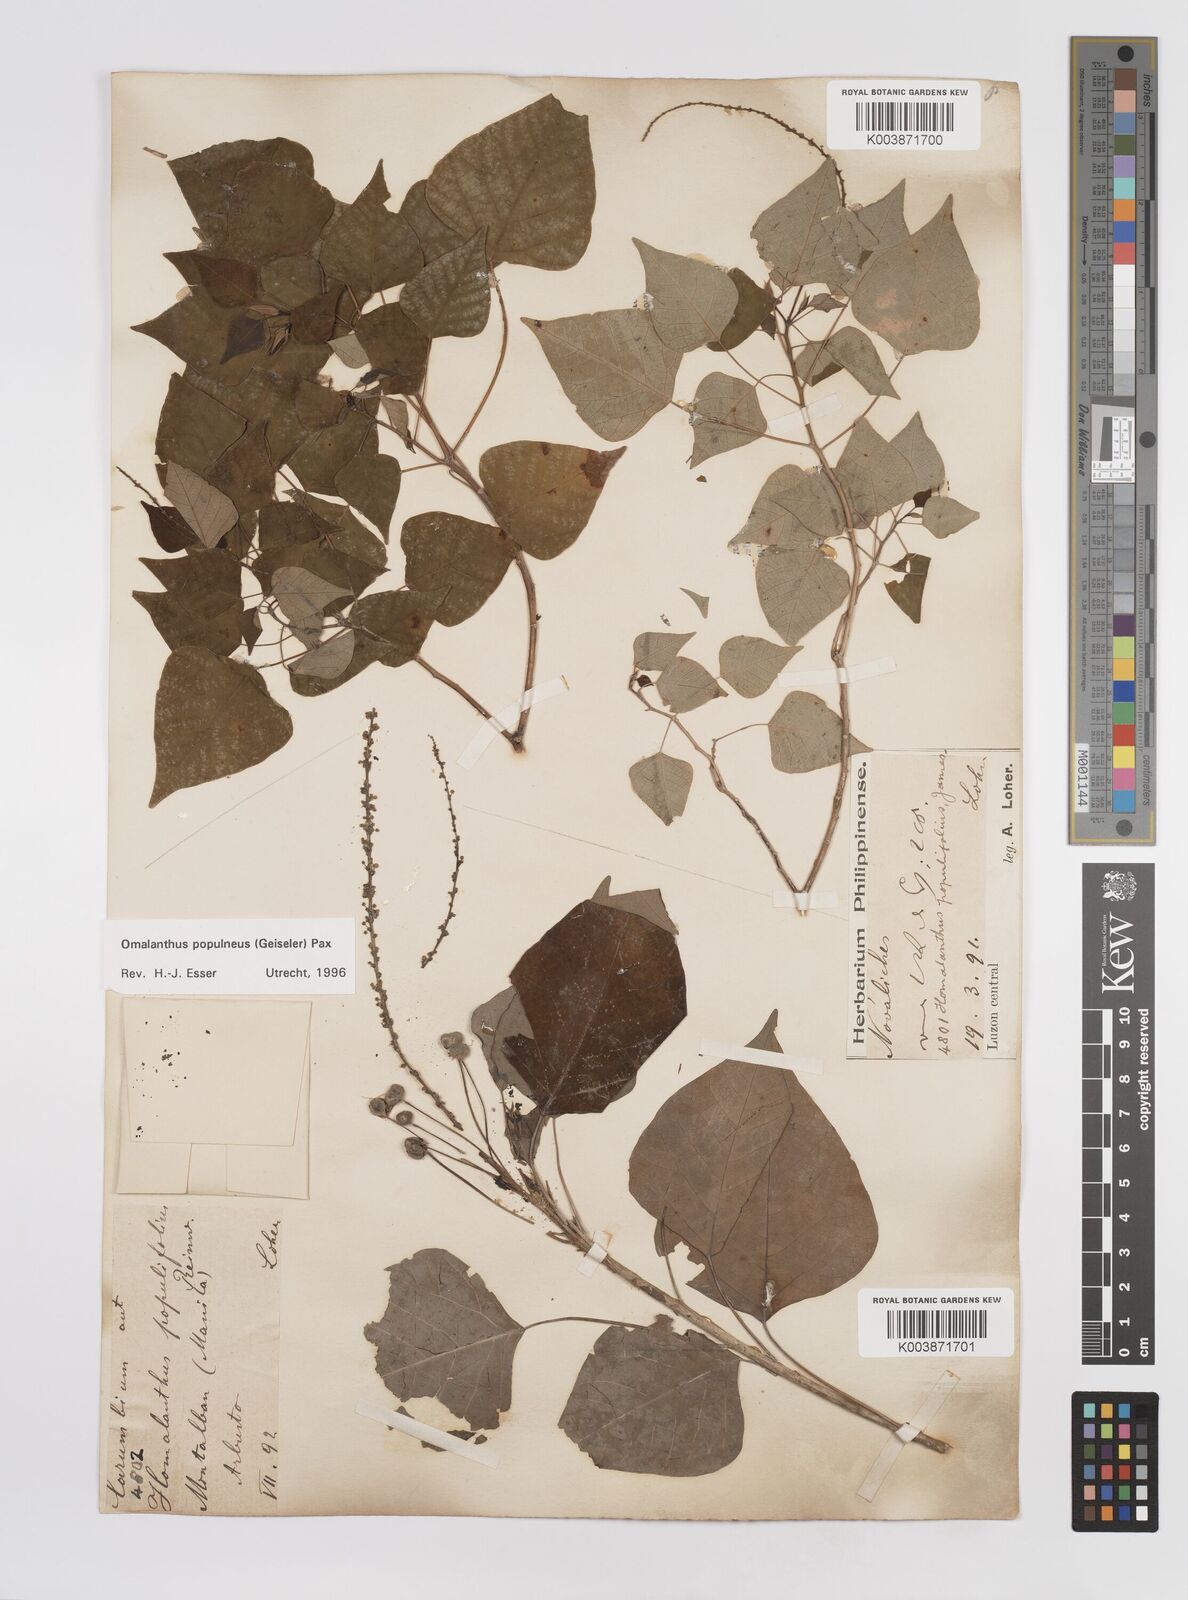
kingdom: Plantae
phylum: Tracheophyta
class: Magnoliopsida
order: Malpighiales
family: Euphorbiaceae
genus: Homalanthus
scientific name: Homalanthus populneus
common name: Spurge
